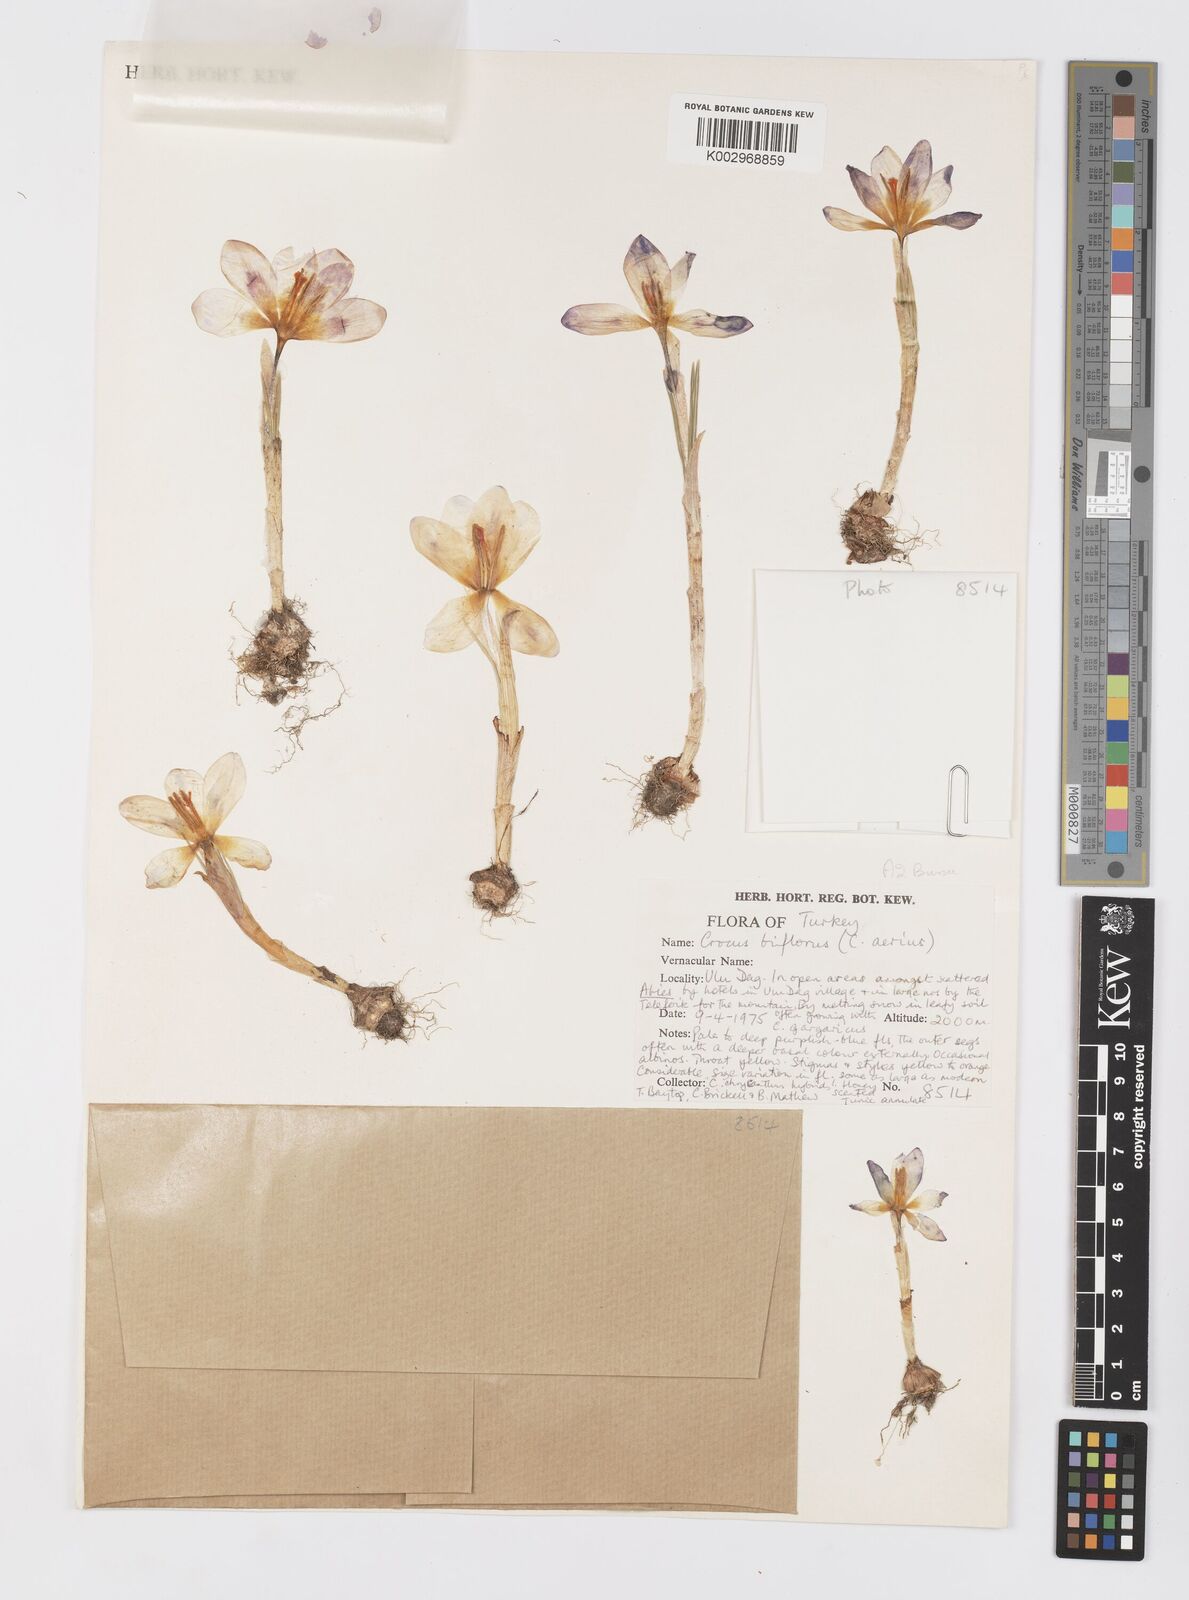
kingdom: Plantae
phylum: Tracheophyta
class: Liliopsida
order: Asparagales
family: Iridaceae
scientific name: Iridaceae
